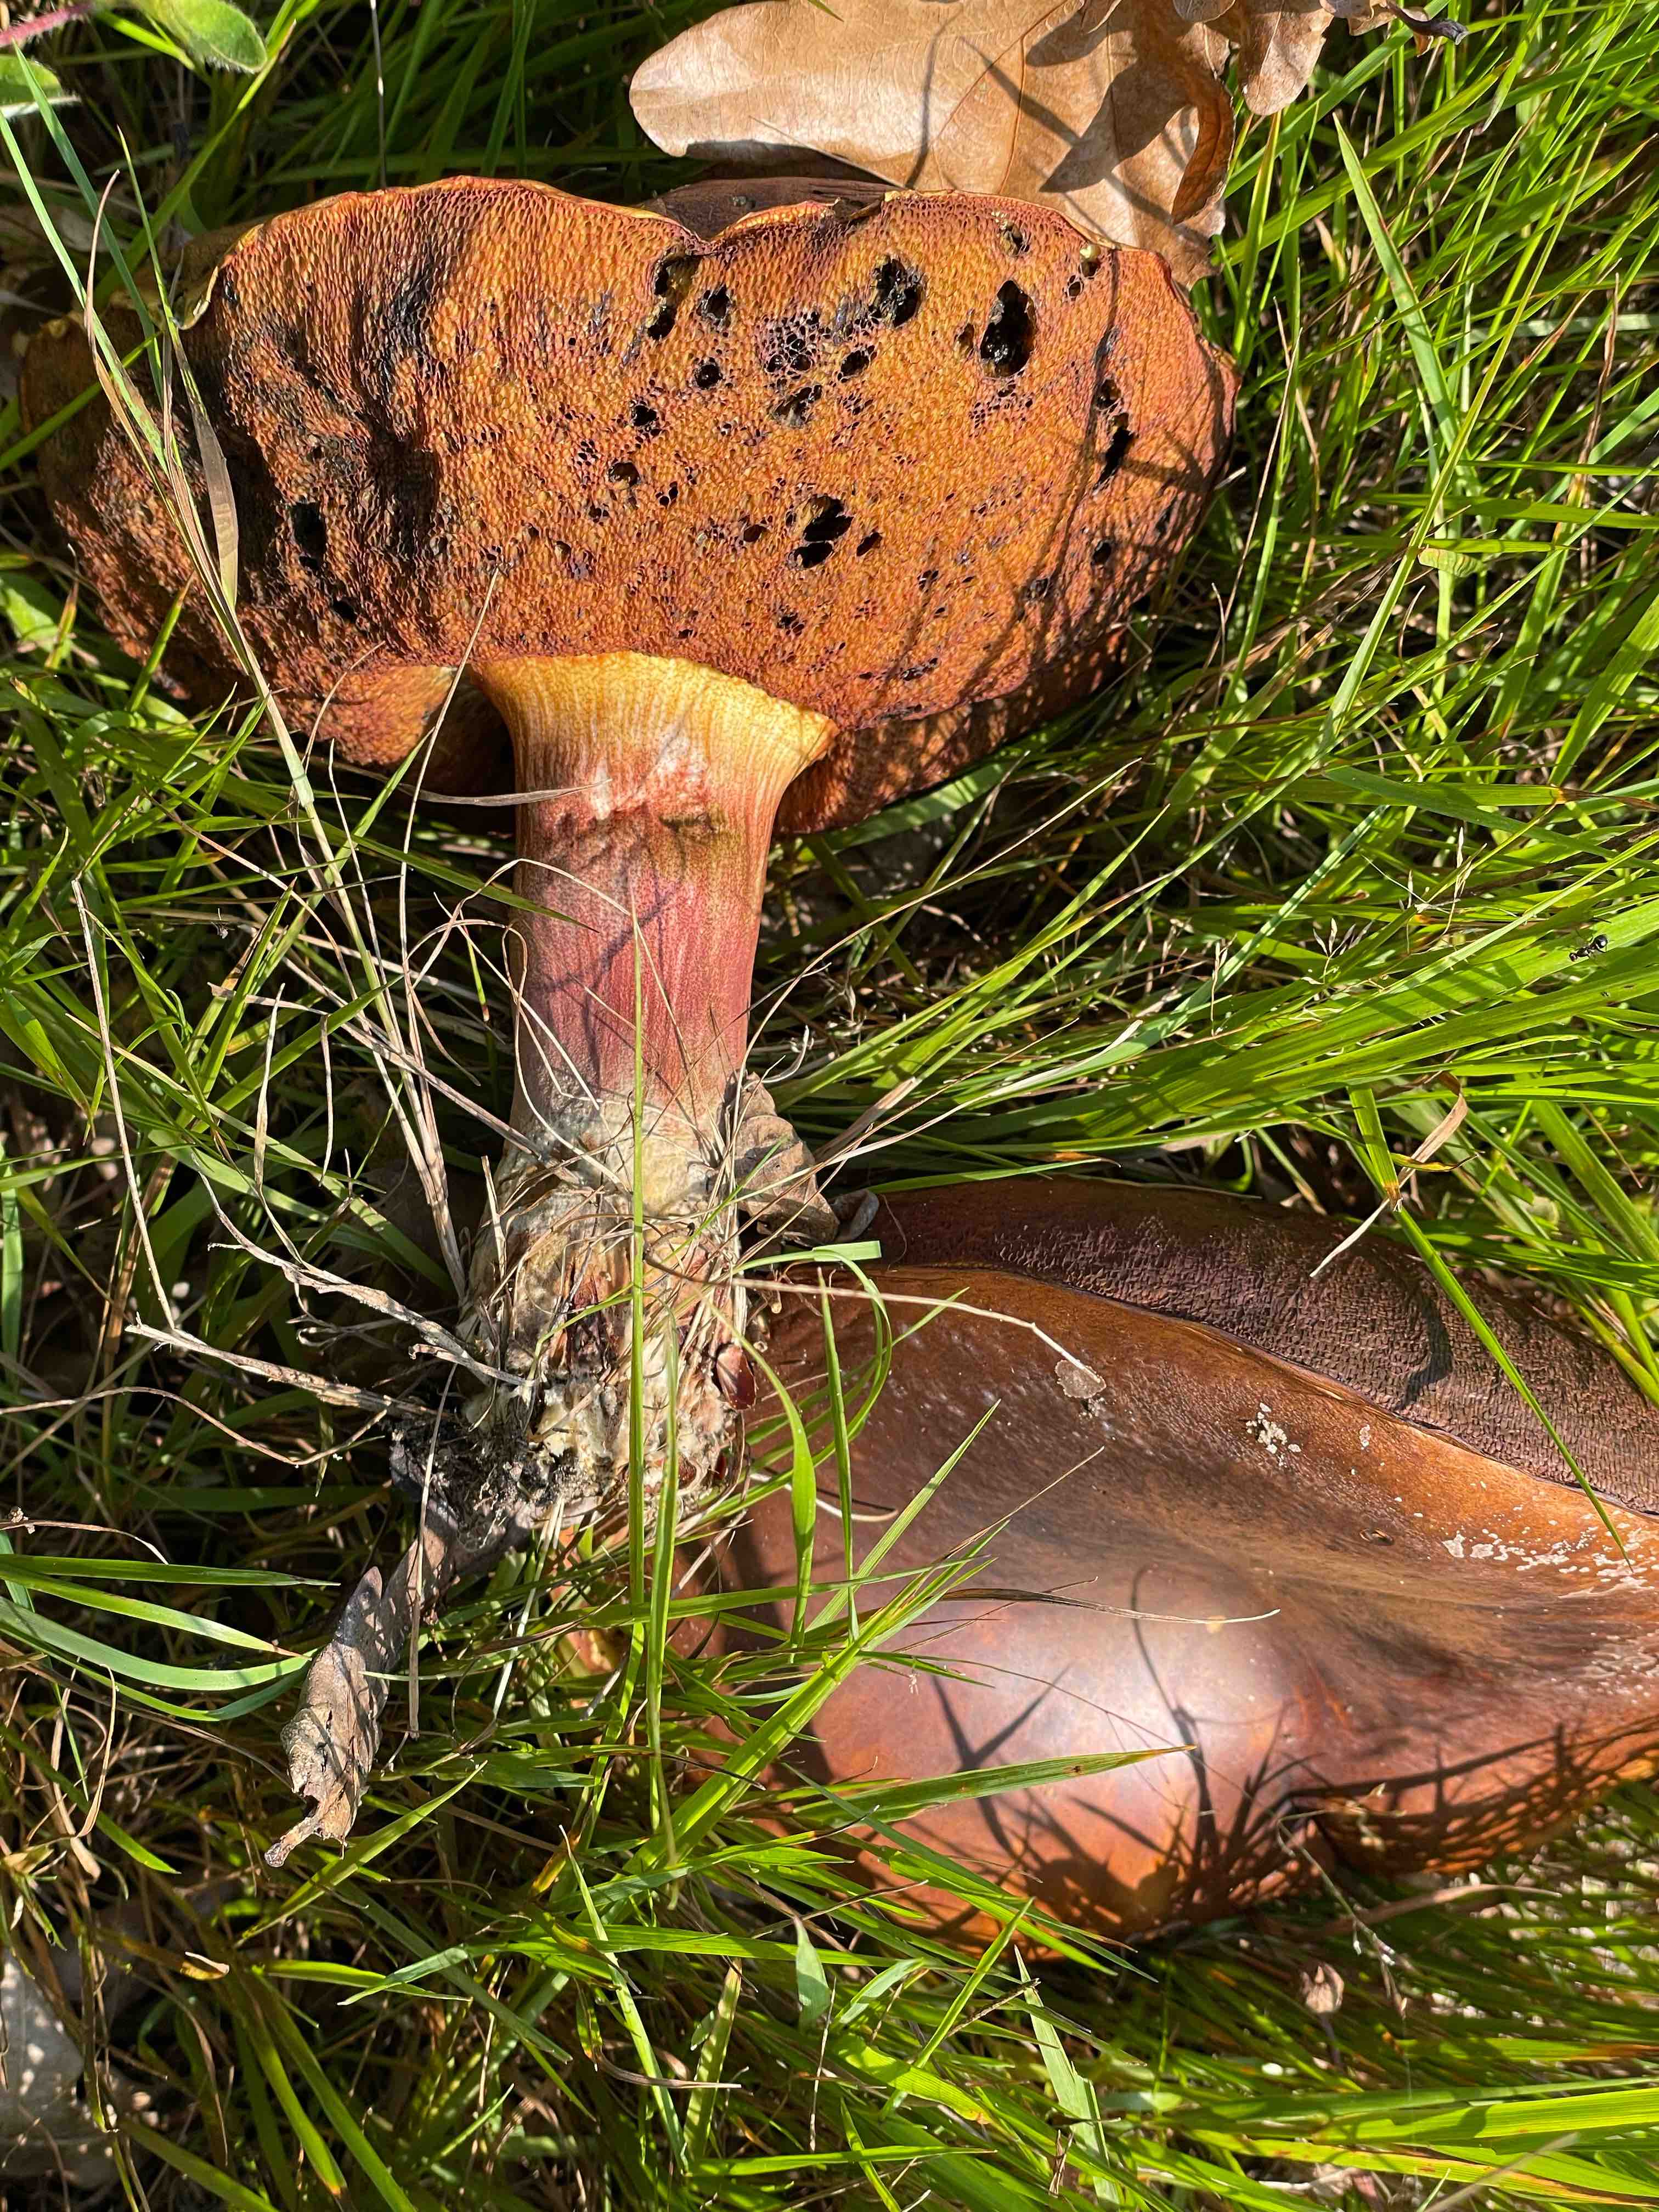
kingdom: Fungi
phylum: Basidiomycota
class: Agaricomycetes
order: Boletales
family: Boletaceae
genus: Neoboletus
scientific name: Neoboletus erythropus
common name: punktstokket indigorørhat
